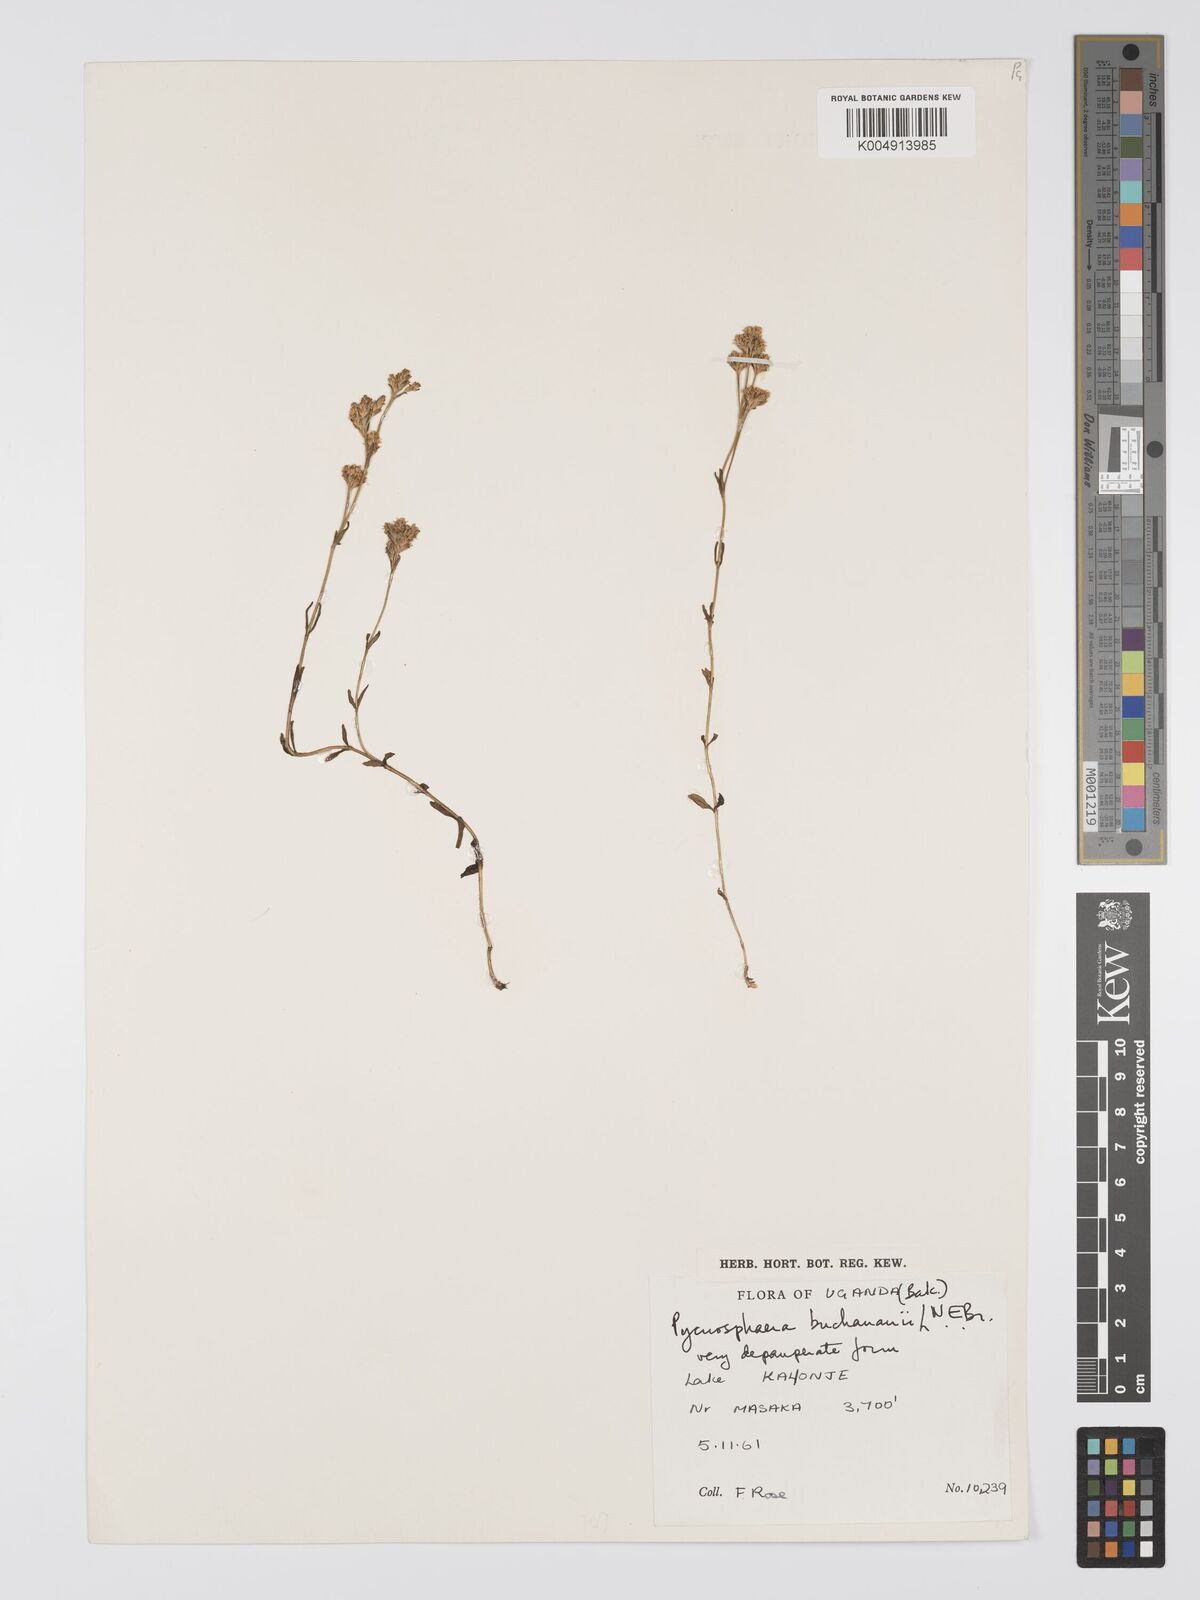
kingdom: Plantae
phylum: Tracheophyta
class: Magnoliopsida
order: Gentianales
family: Gentianaceae
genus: Pycnosphaera
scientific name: Pycnosphaera buchananii
